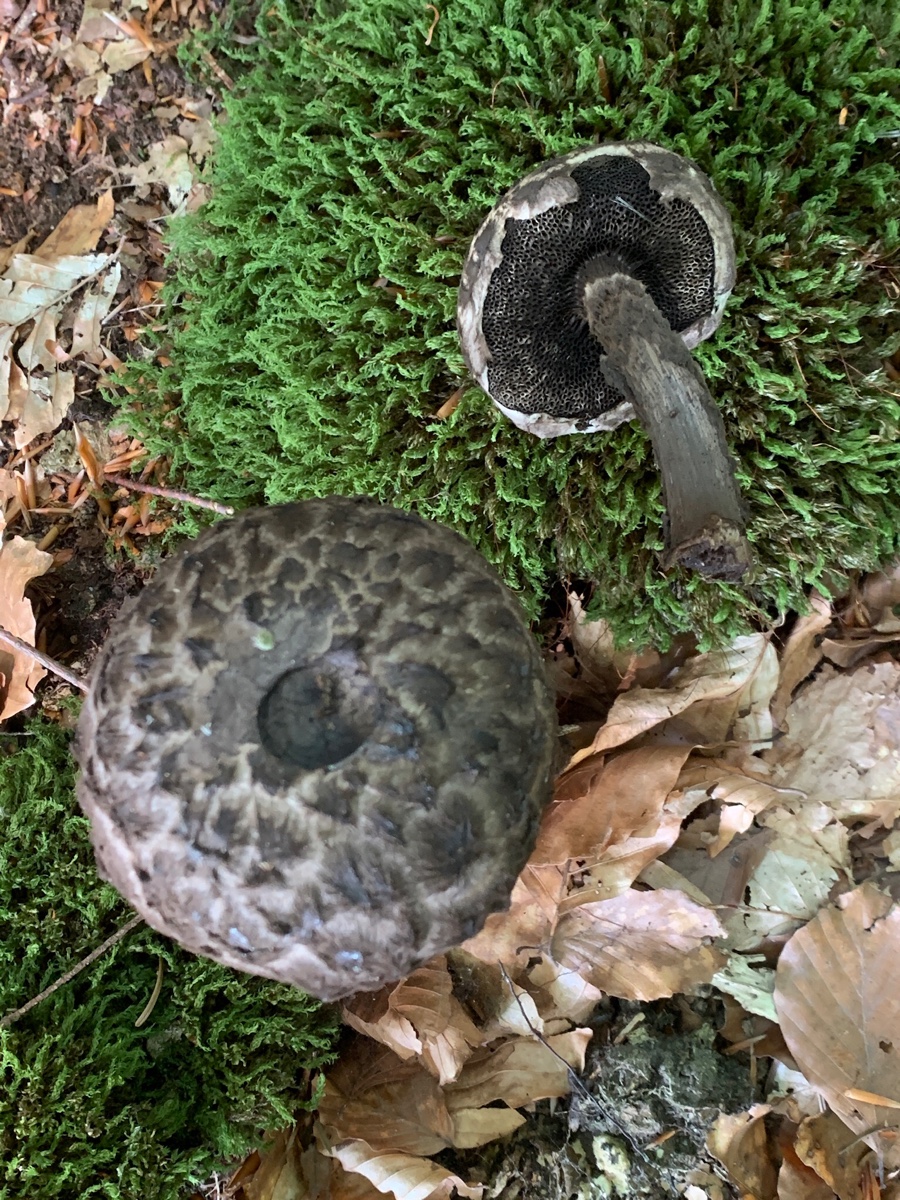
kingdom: Fungi
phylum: Basidiomycota
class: Agaricomycetes
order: Boletales
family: Boletaceae
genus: Strobilomyces
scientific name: Strobilomyces
